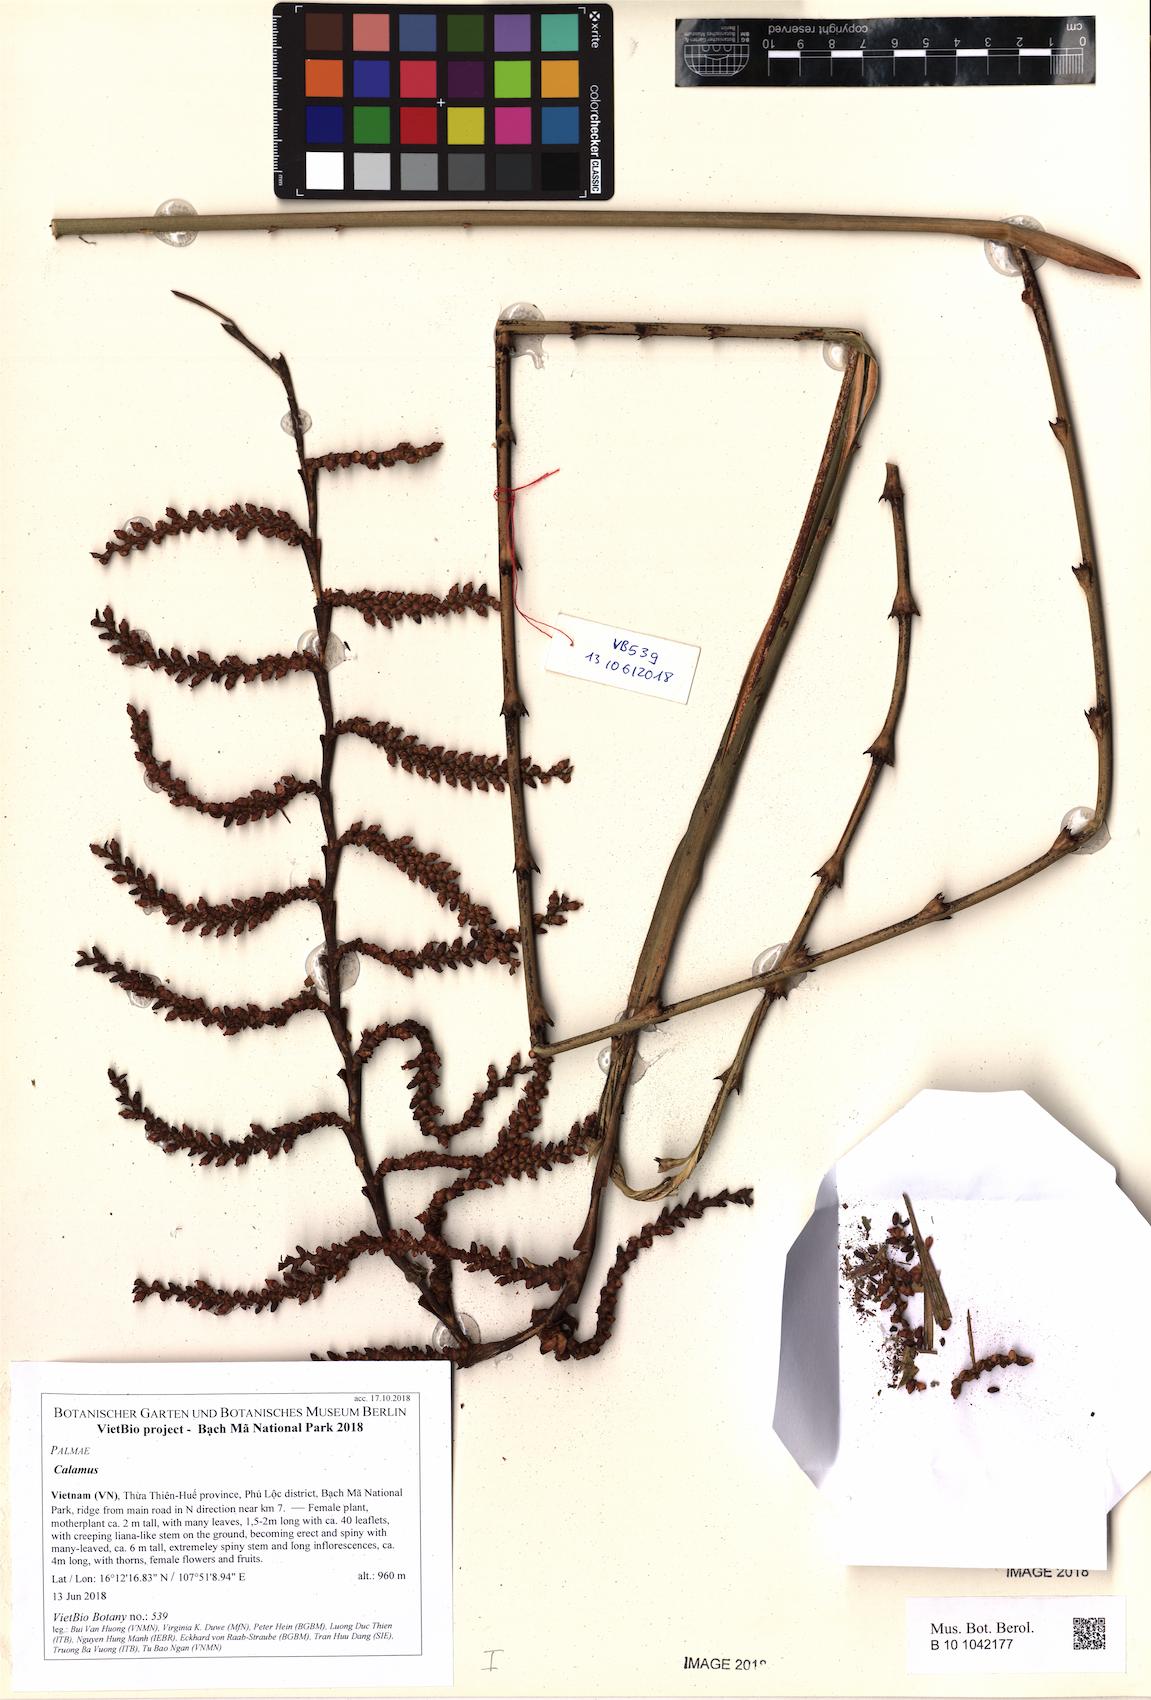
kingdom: Plantae
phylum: Tracheophyta
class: Liliopsida
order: Arecales
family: Arecaceae
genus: Calamus
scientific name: Calamus
